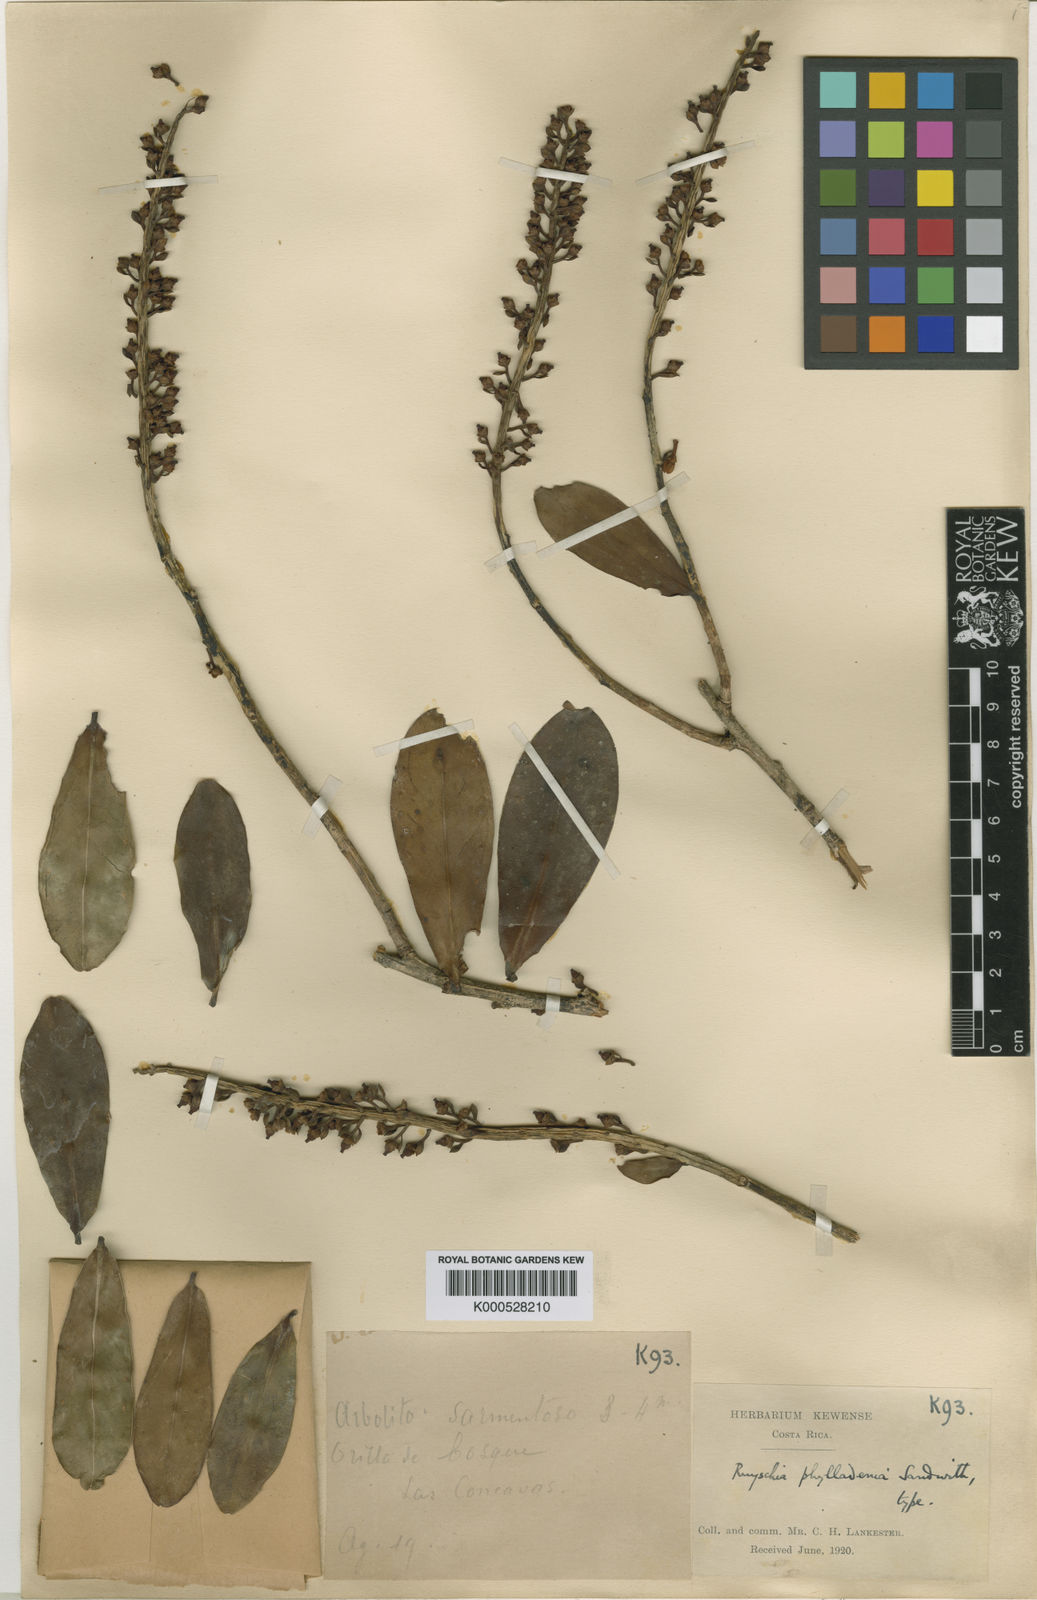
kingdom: Plantae
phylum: Tracheophyta
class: Magnoliopsida
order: Ericales
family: Marcgraviaceae
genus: Ruyschia
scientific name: Ruyschia phylladenia
